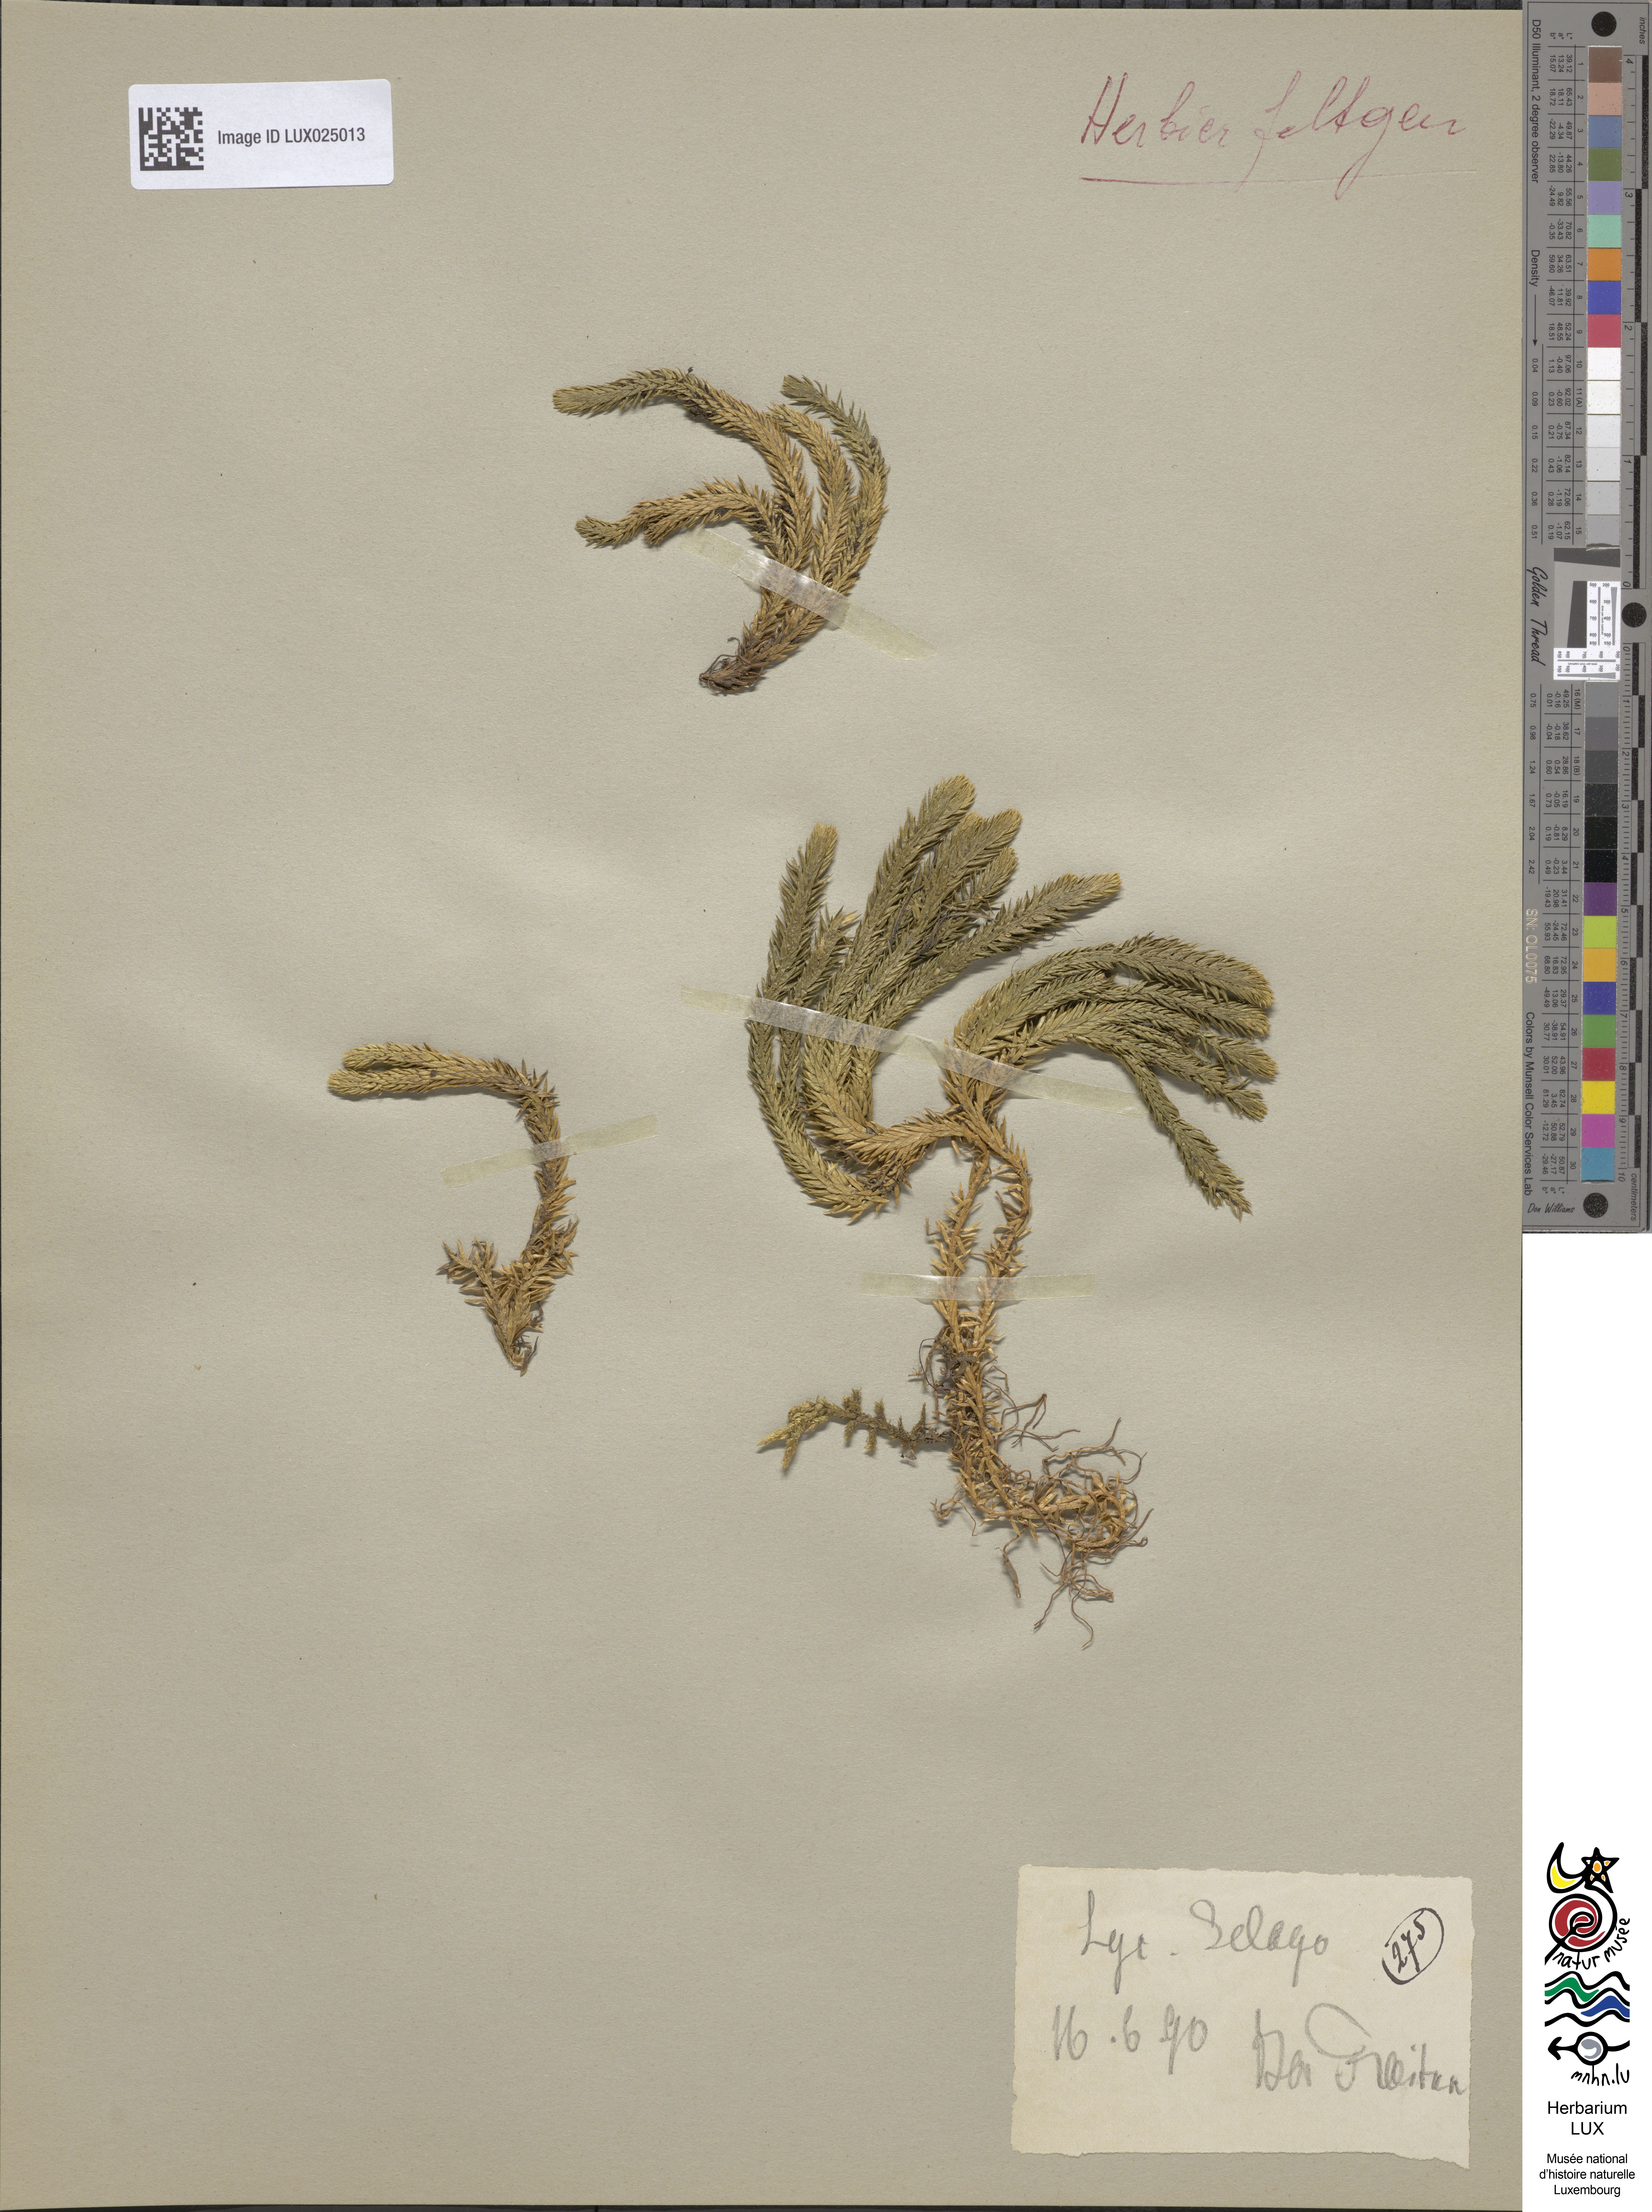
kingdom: Plantae
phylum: Tracheophyta
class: Lycopodiopsida
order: Lycopodiales
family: Lycopodiaceae
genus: Huperzia
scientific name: Huperzia selago
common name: Northern firmoss
